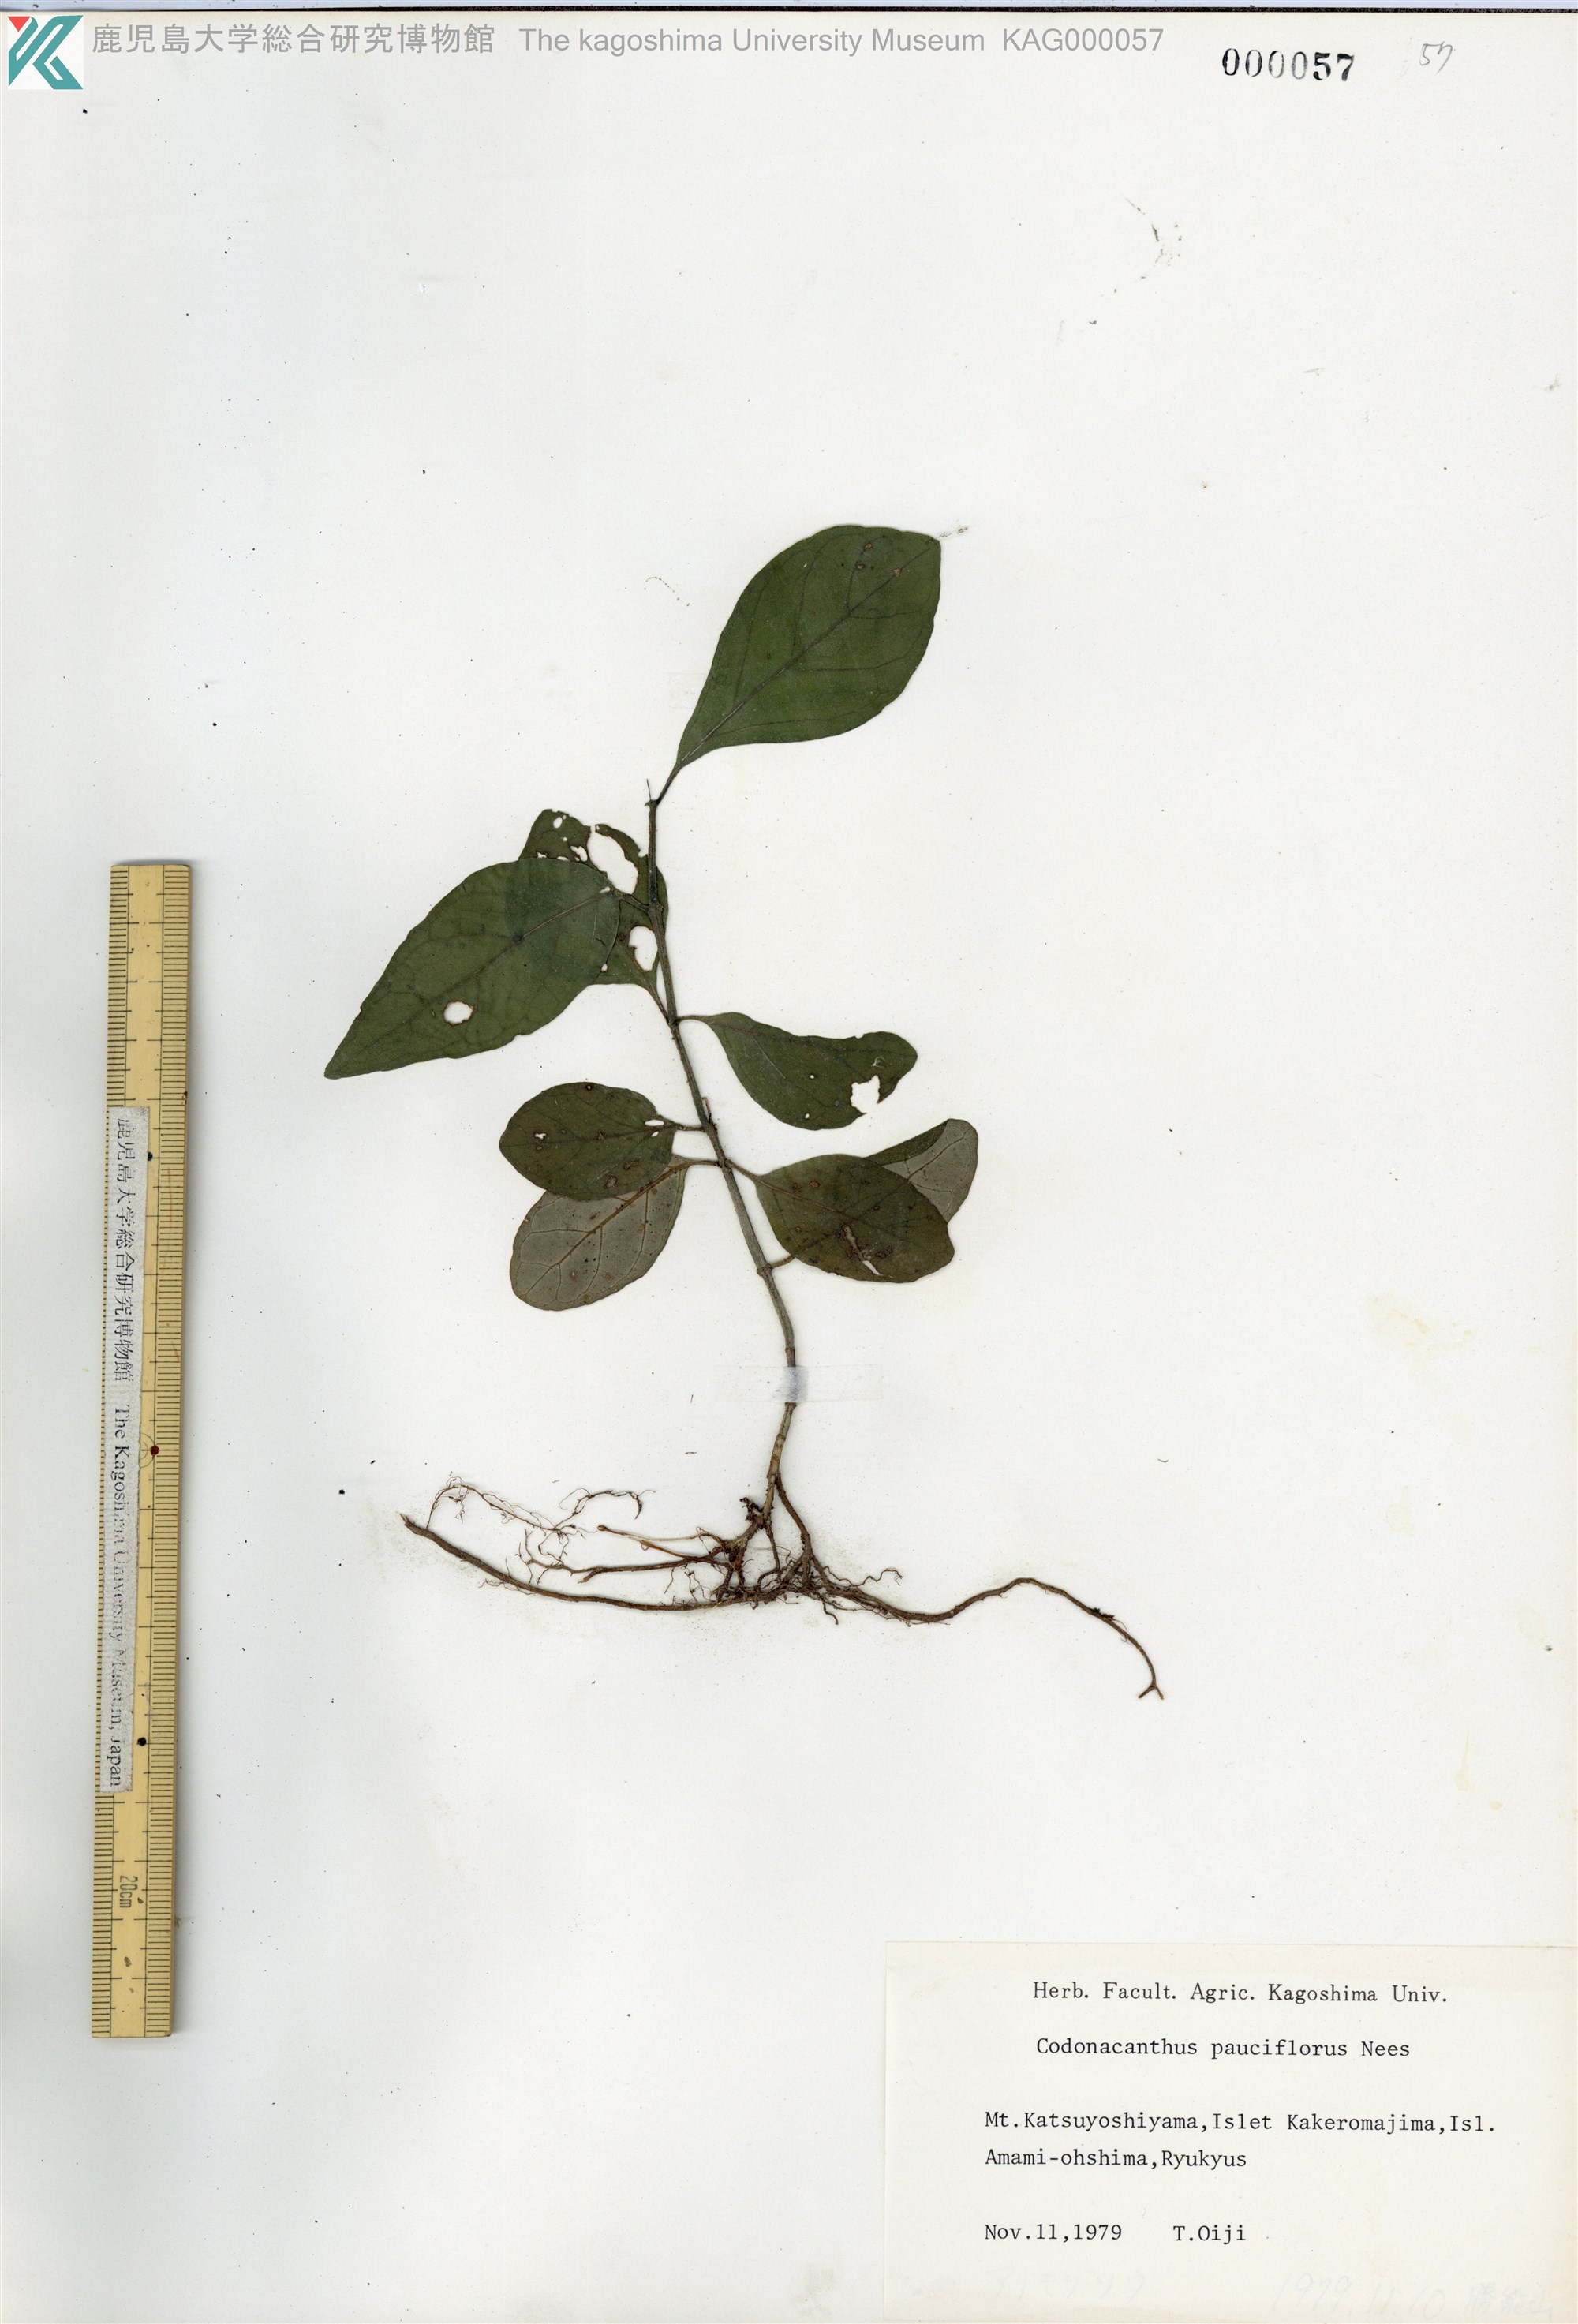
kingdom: Plantae
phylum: Tracheophyta
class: Magnoliopsida
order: Lamiales
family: Acanthaceae
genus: Codonacanthus
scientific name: Codonacanthus pauciflorus
